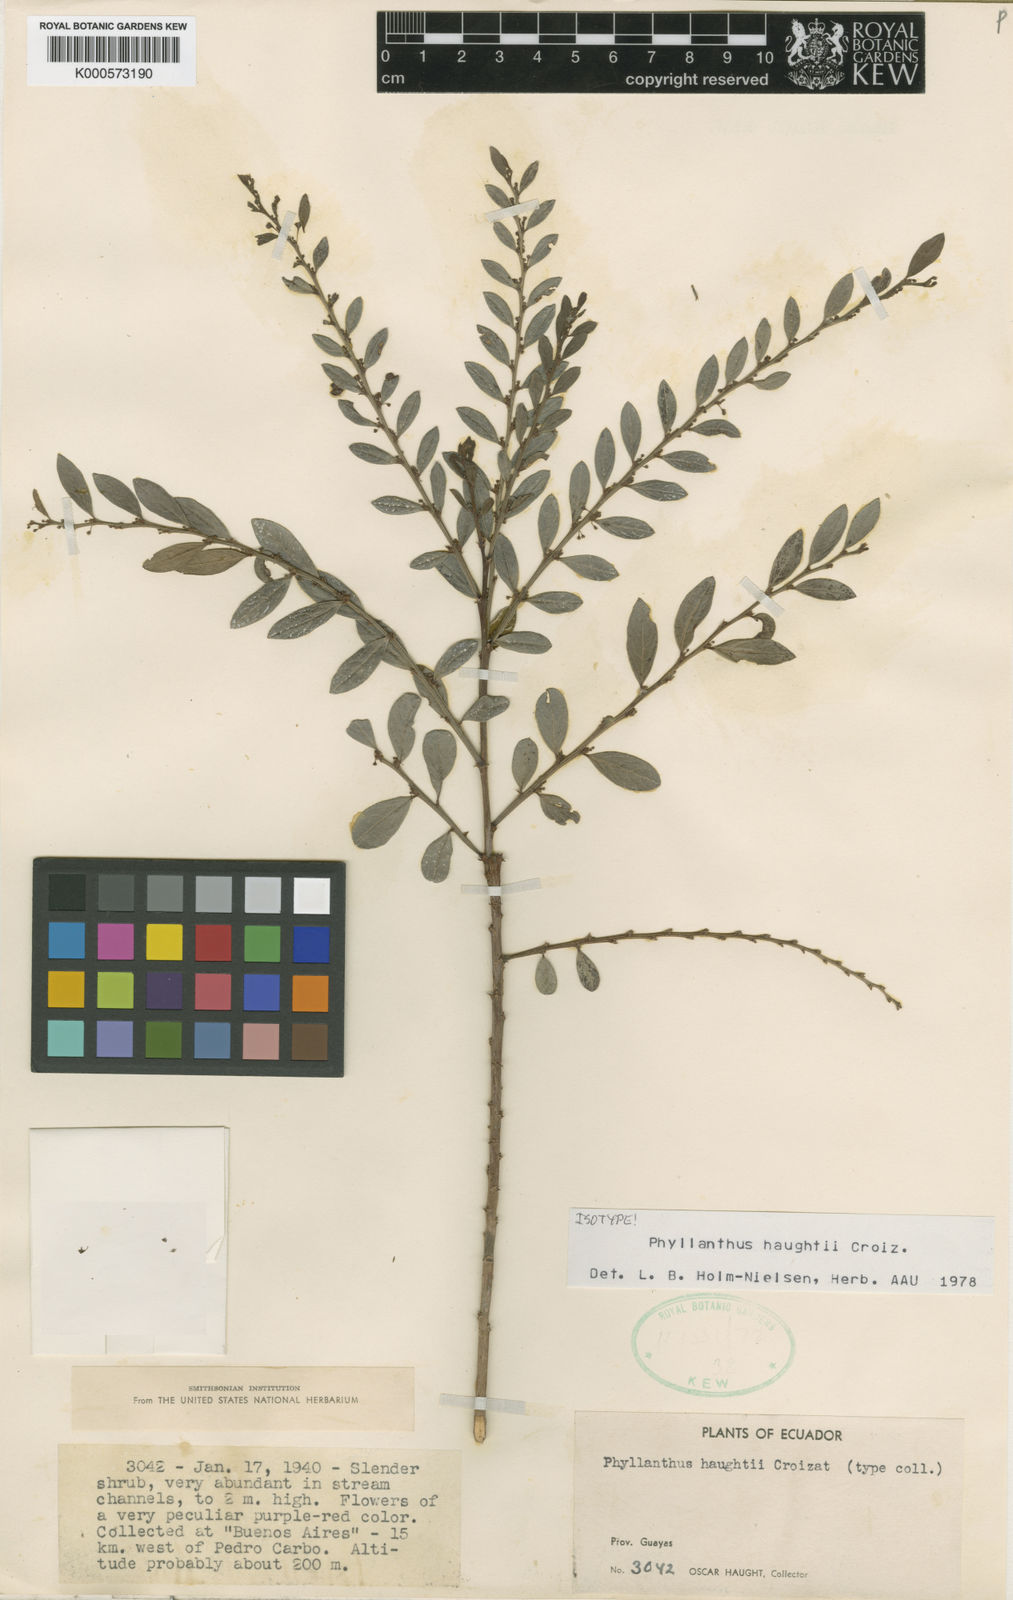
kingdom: Plantae
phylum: Tracheophyta
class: Magnoliopsida
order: Malpighiales
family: Phyllanthaceae
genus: Phyllanthus
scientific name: Phyllanthus pavonianus
